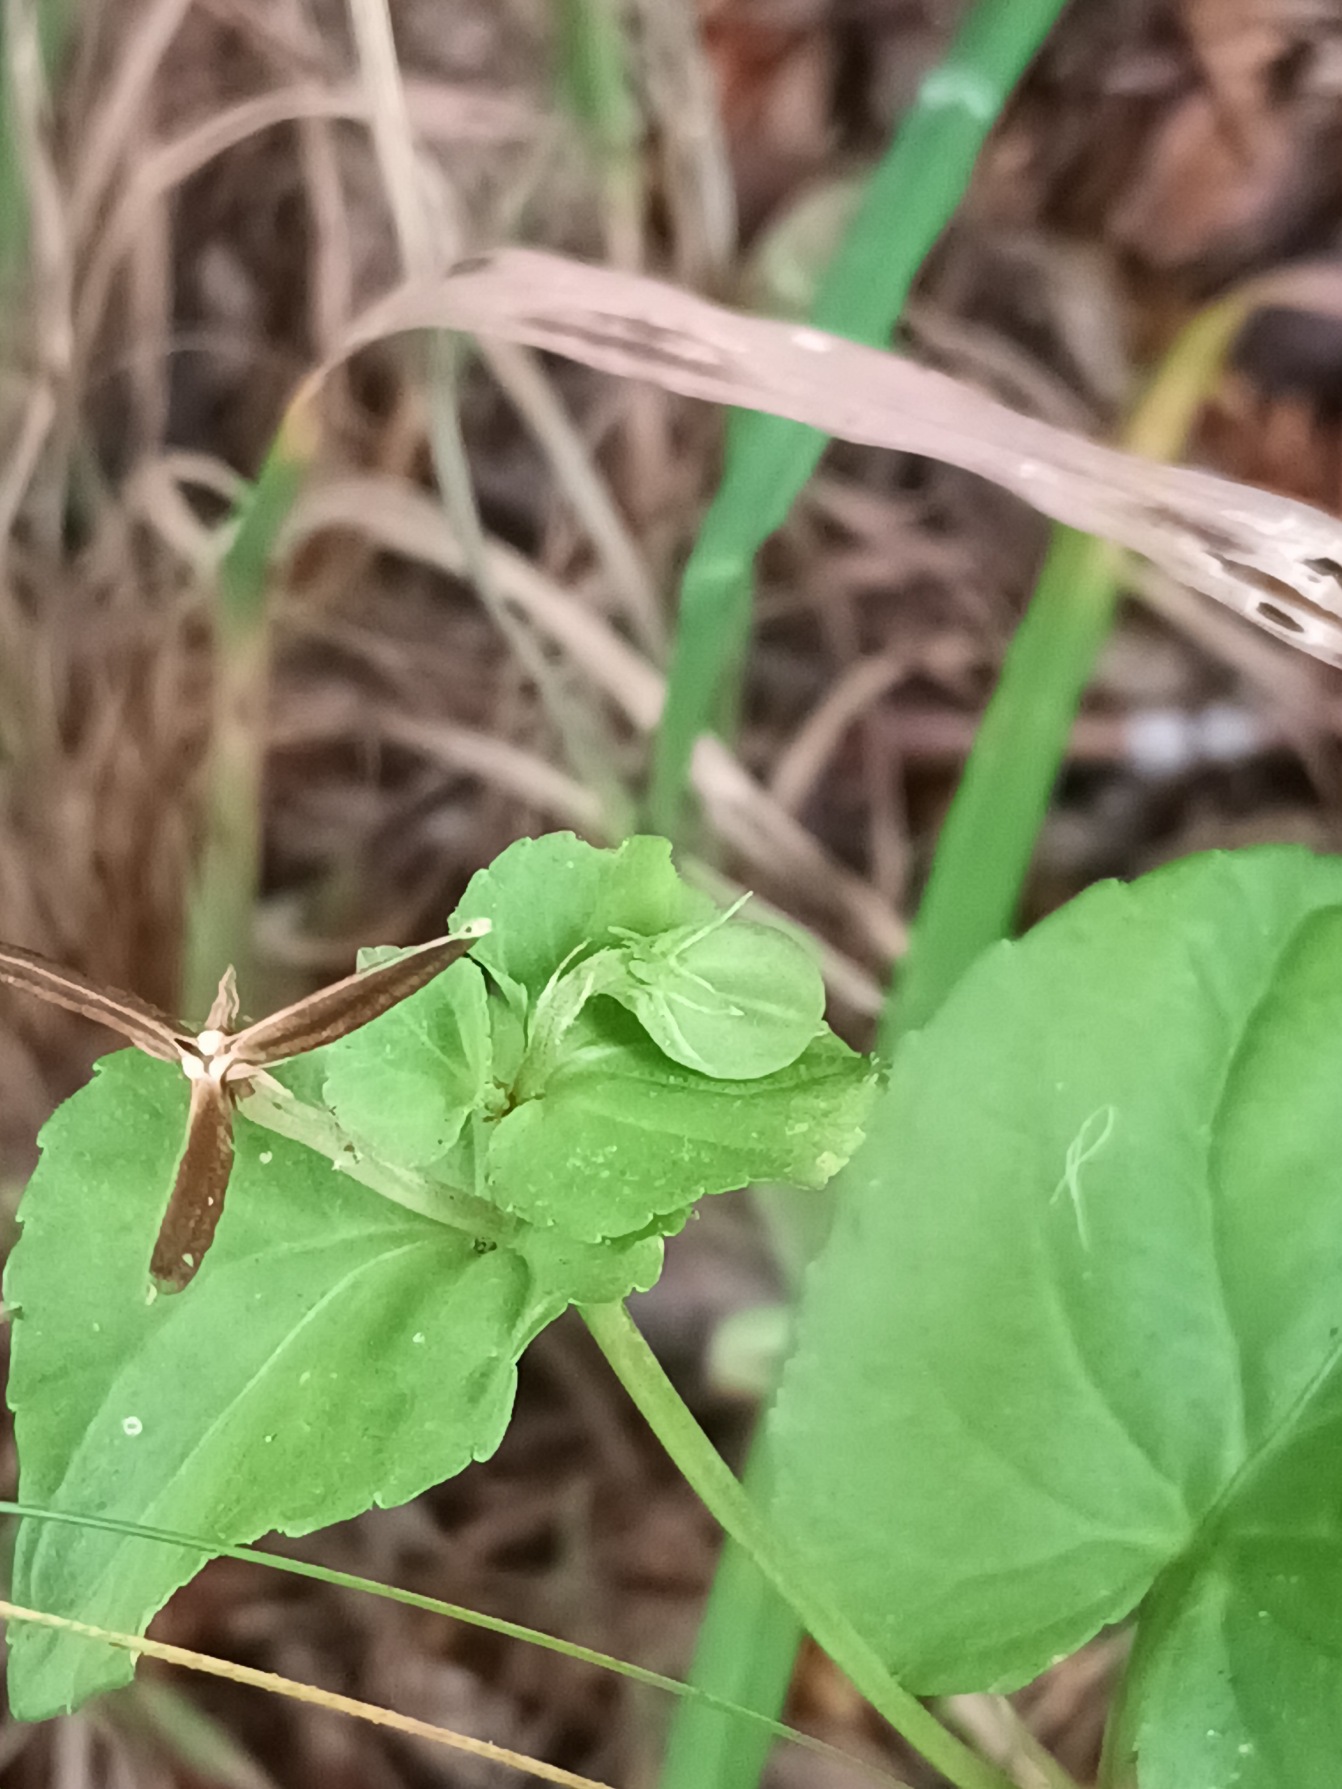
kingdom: Plantae
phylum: Tracheophyta
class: Magnoliopsida
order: Malpighiales
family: Violaceae
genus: Viola
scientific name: Viola riviniana
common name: Krat-viol
